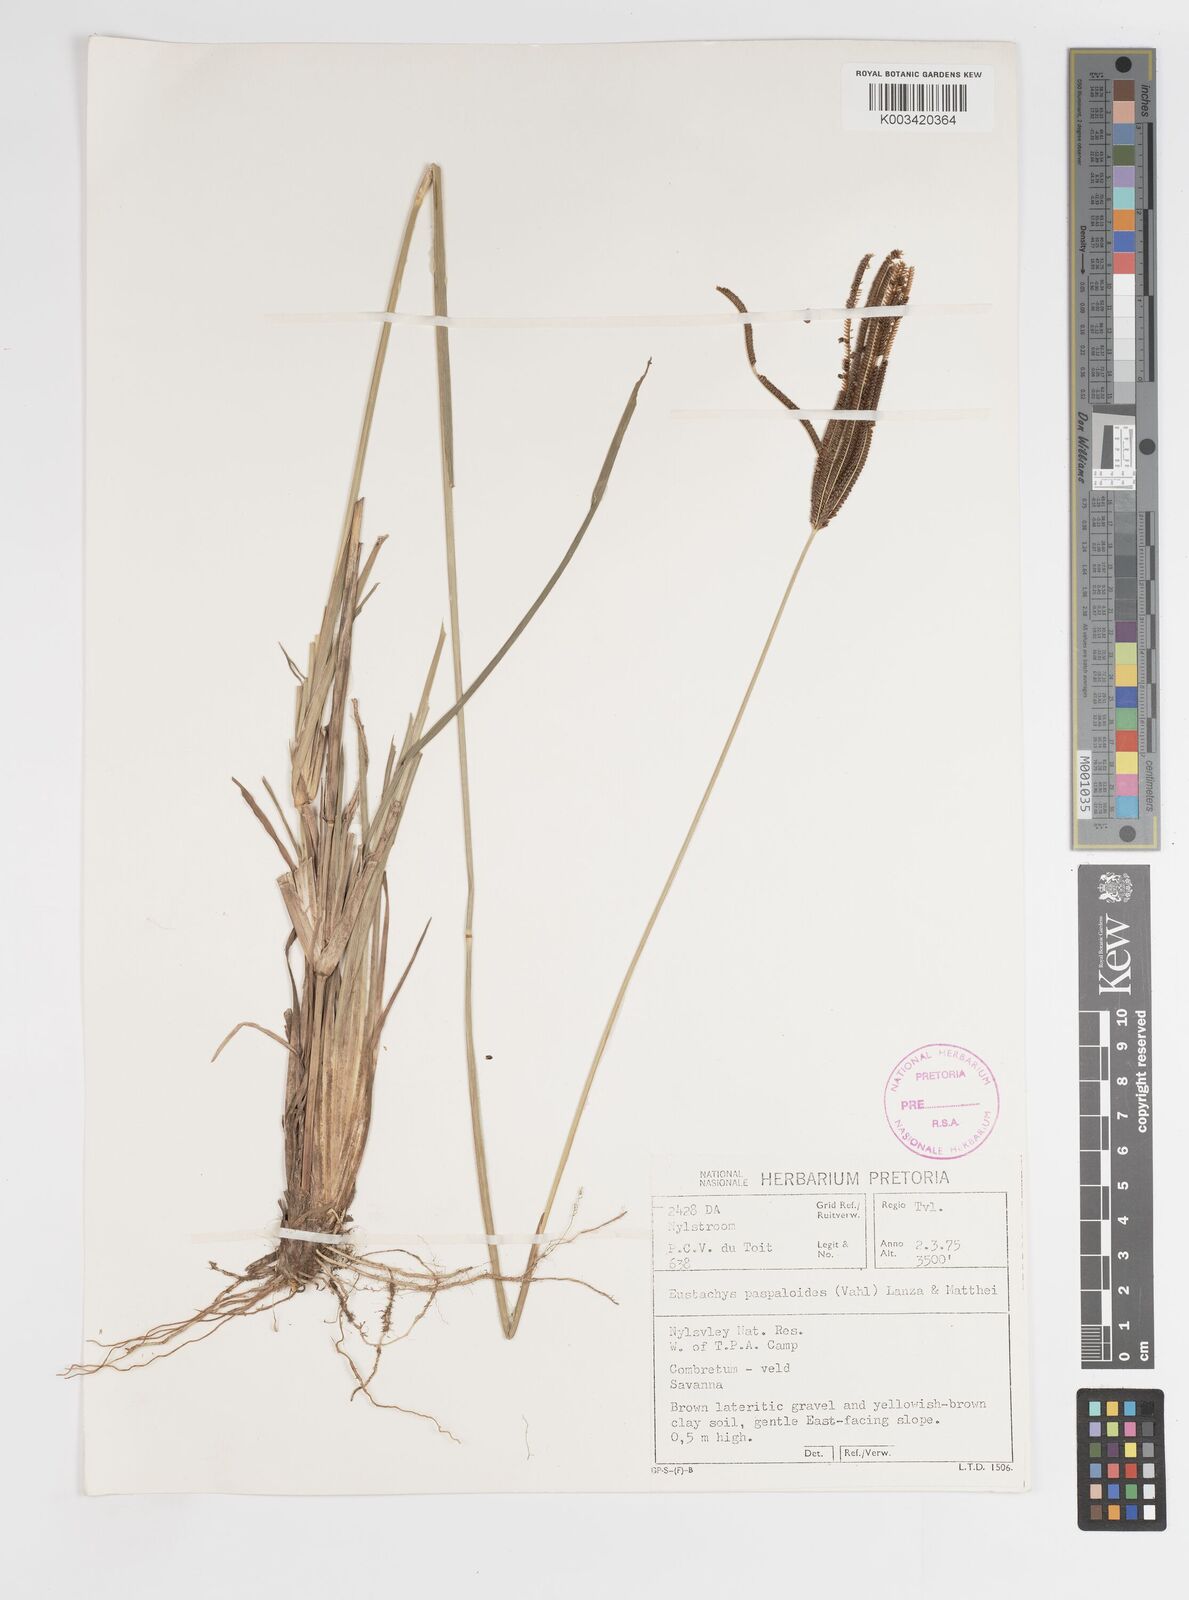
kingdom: Plantae
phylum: Tracheophyta
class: Liliopsida
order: Poales
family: Poaceae
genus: Eustachys
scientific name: Eustachys paspaloides
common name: Caribbean fingergrass
